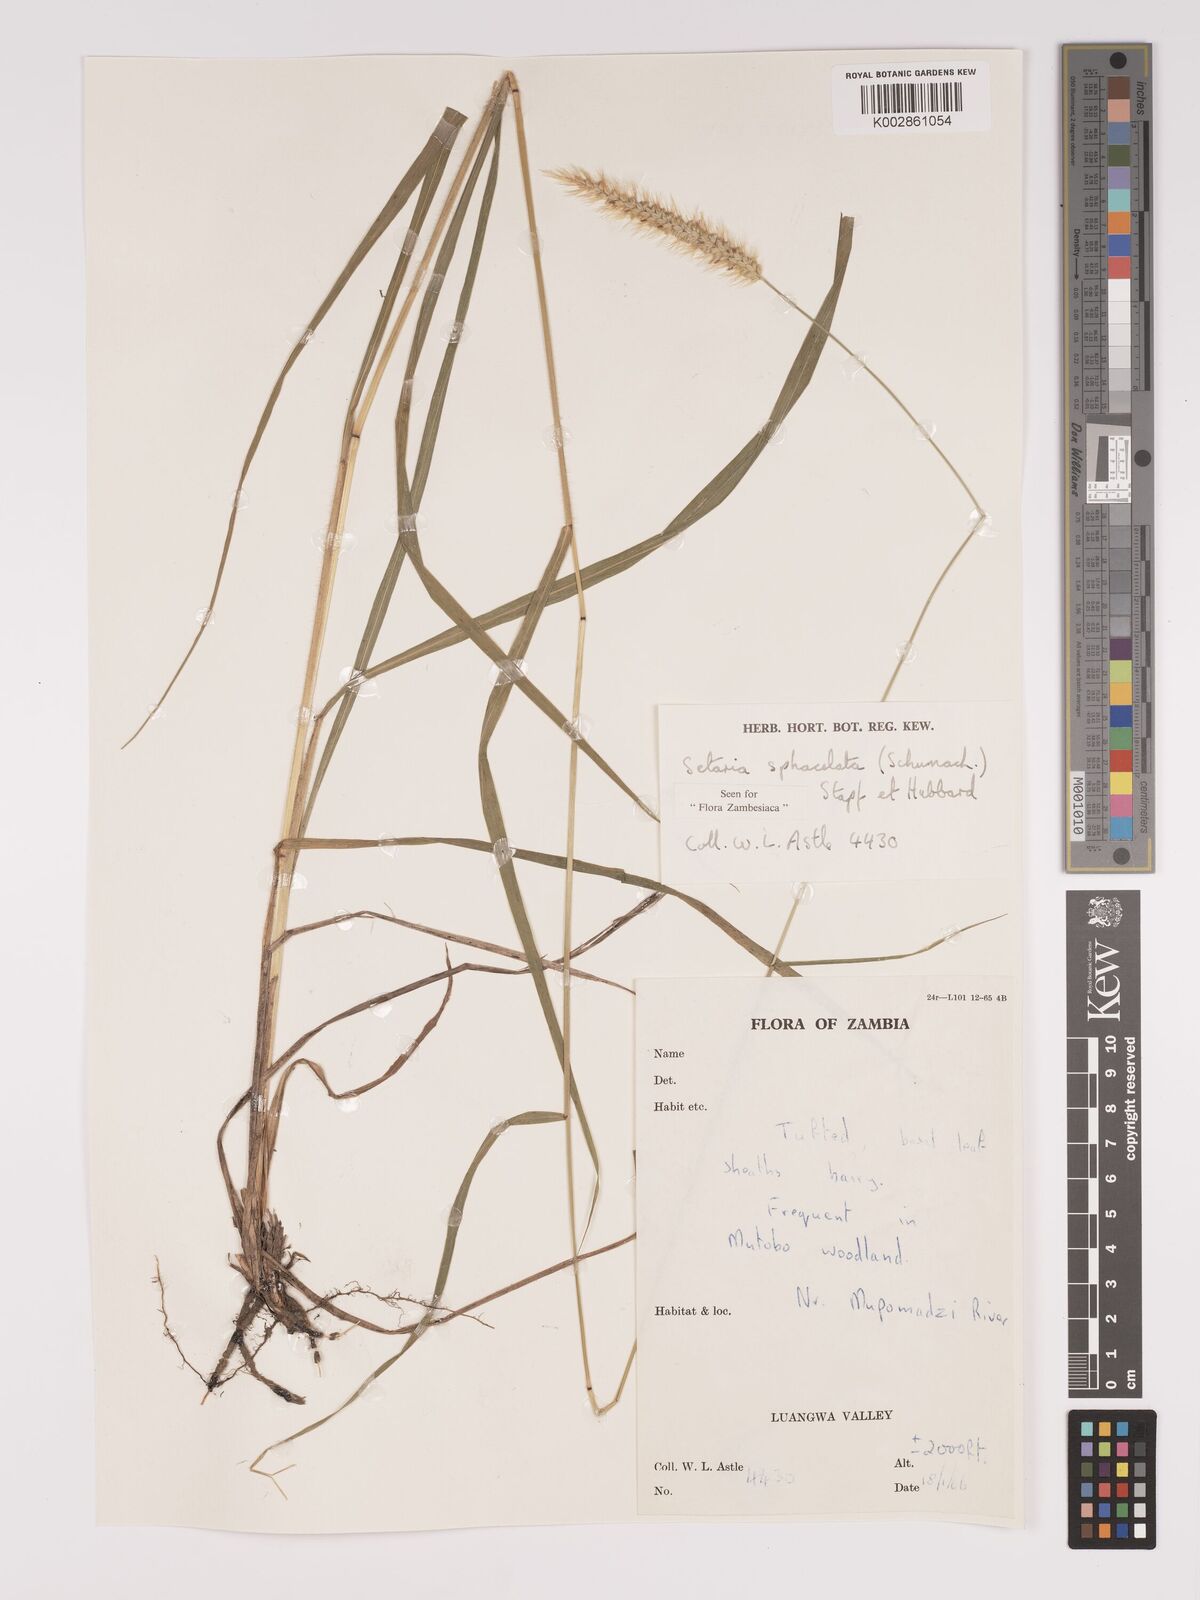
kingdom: Plantae
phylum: Tracheophyta
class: Liliopsida
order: Poales
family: Poaceae
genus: Setaria
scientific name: Setaria sphacelata
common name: African bristlegrass
